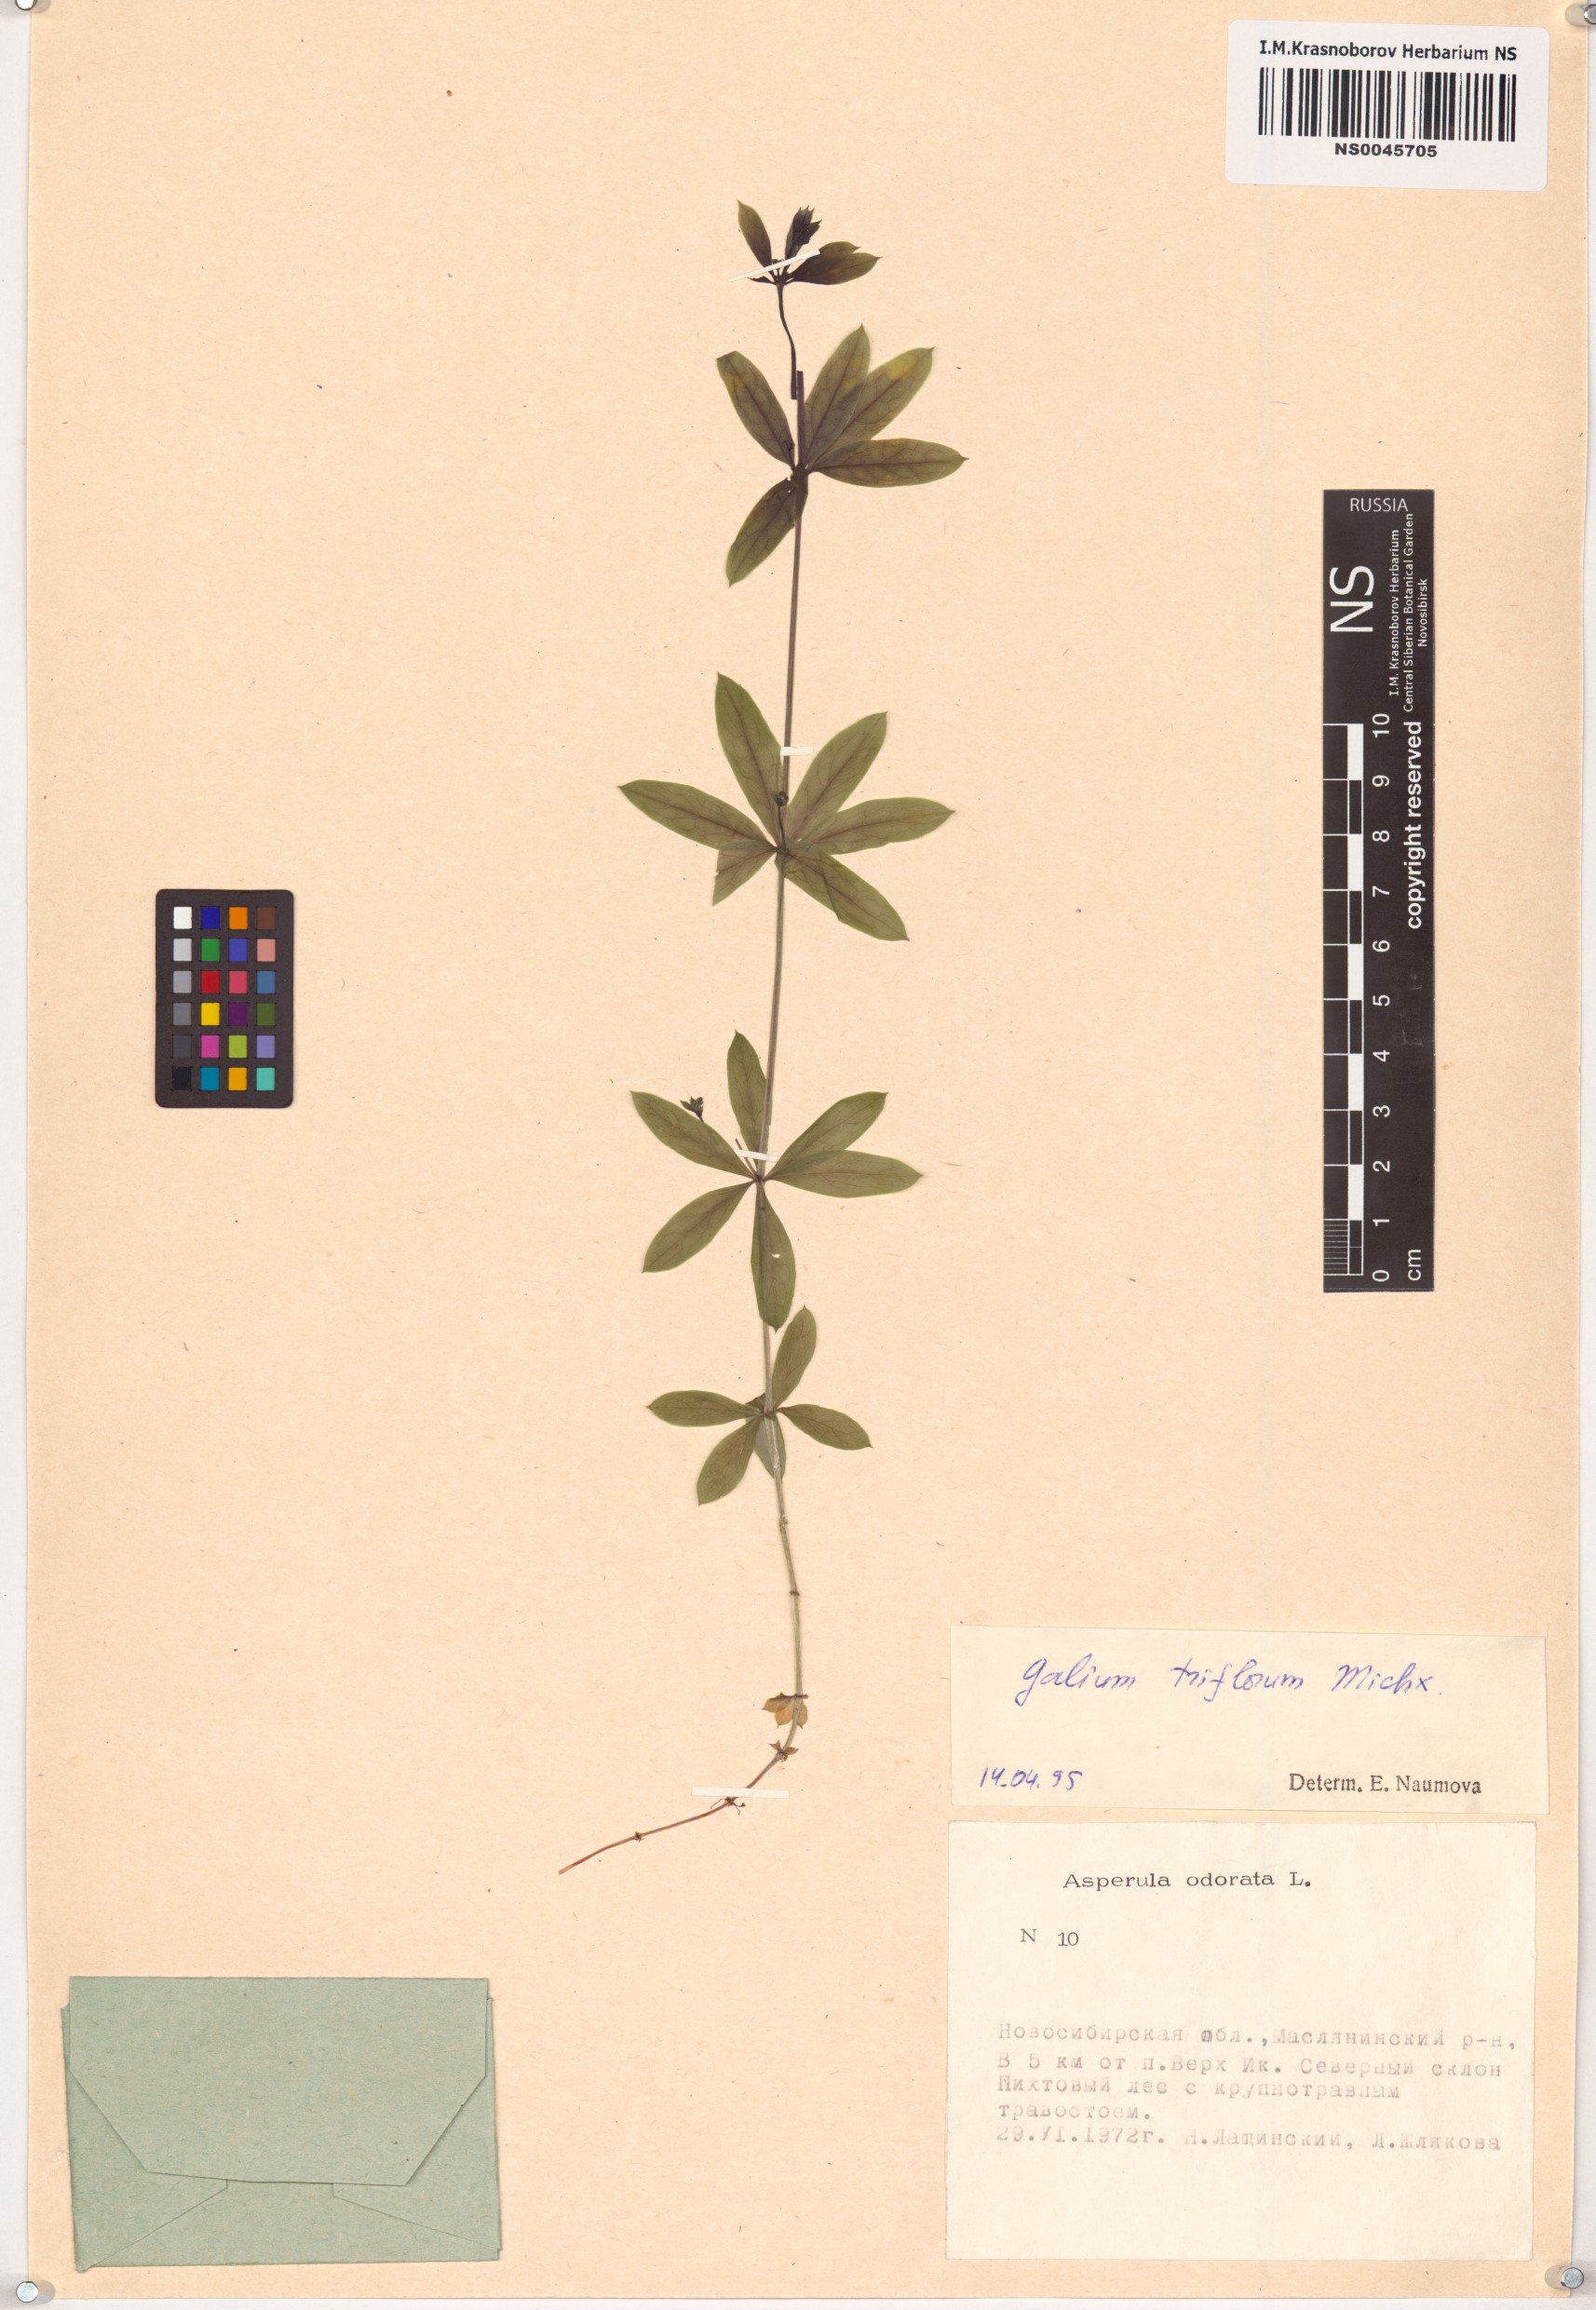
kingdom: Plantae
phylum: Tracheophyta
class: Magnoliopsida
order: Gentianales
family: Rubiaceae
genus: Galium
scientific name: Galium triflorum
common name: Fragrant bedstraw
